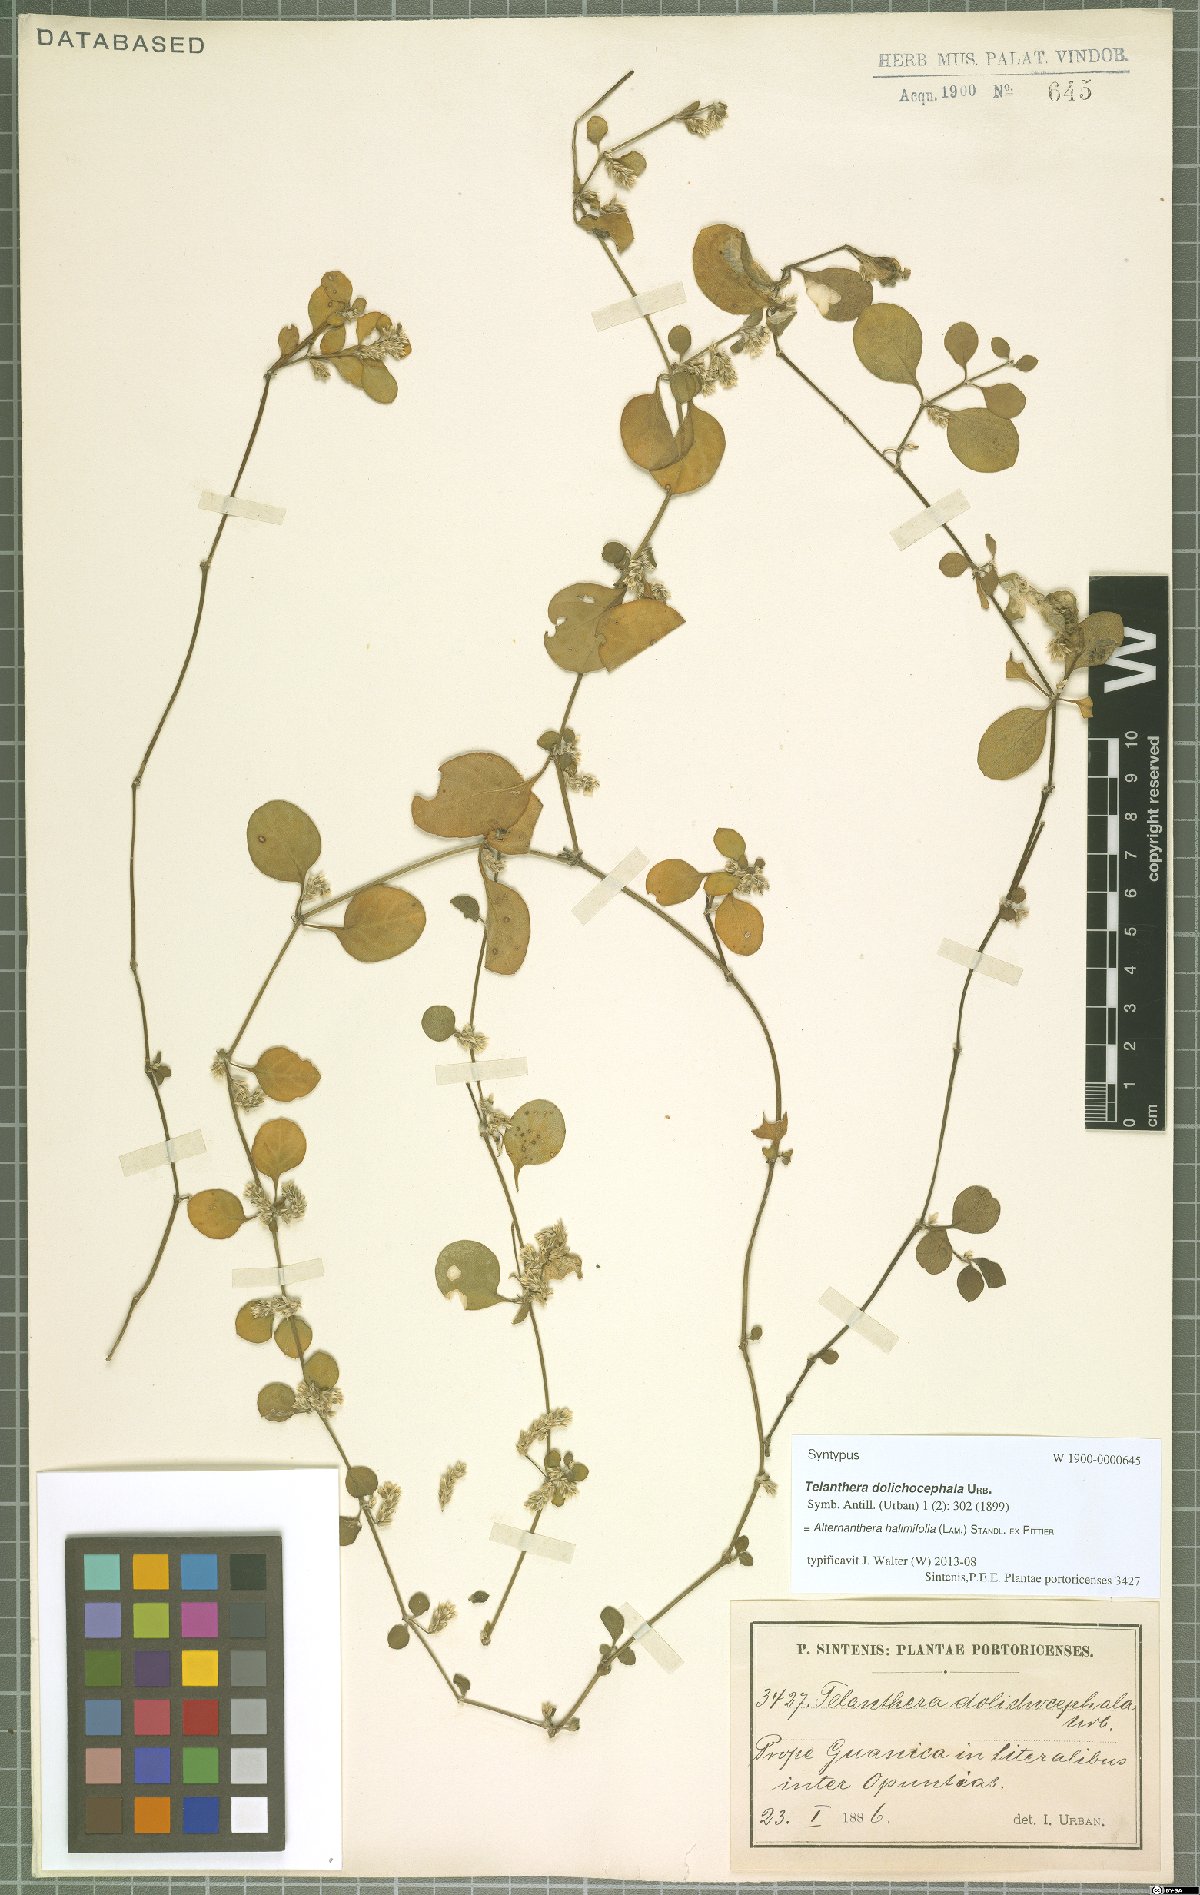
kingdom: Plantae
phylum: Tracheophyta
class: Magnoliopsida
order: Caryophyllales
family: Amaranthaceae
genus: Alternanthera
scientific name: Alternanthera halimifolia
